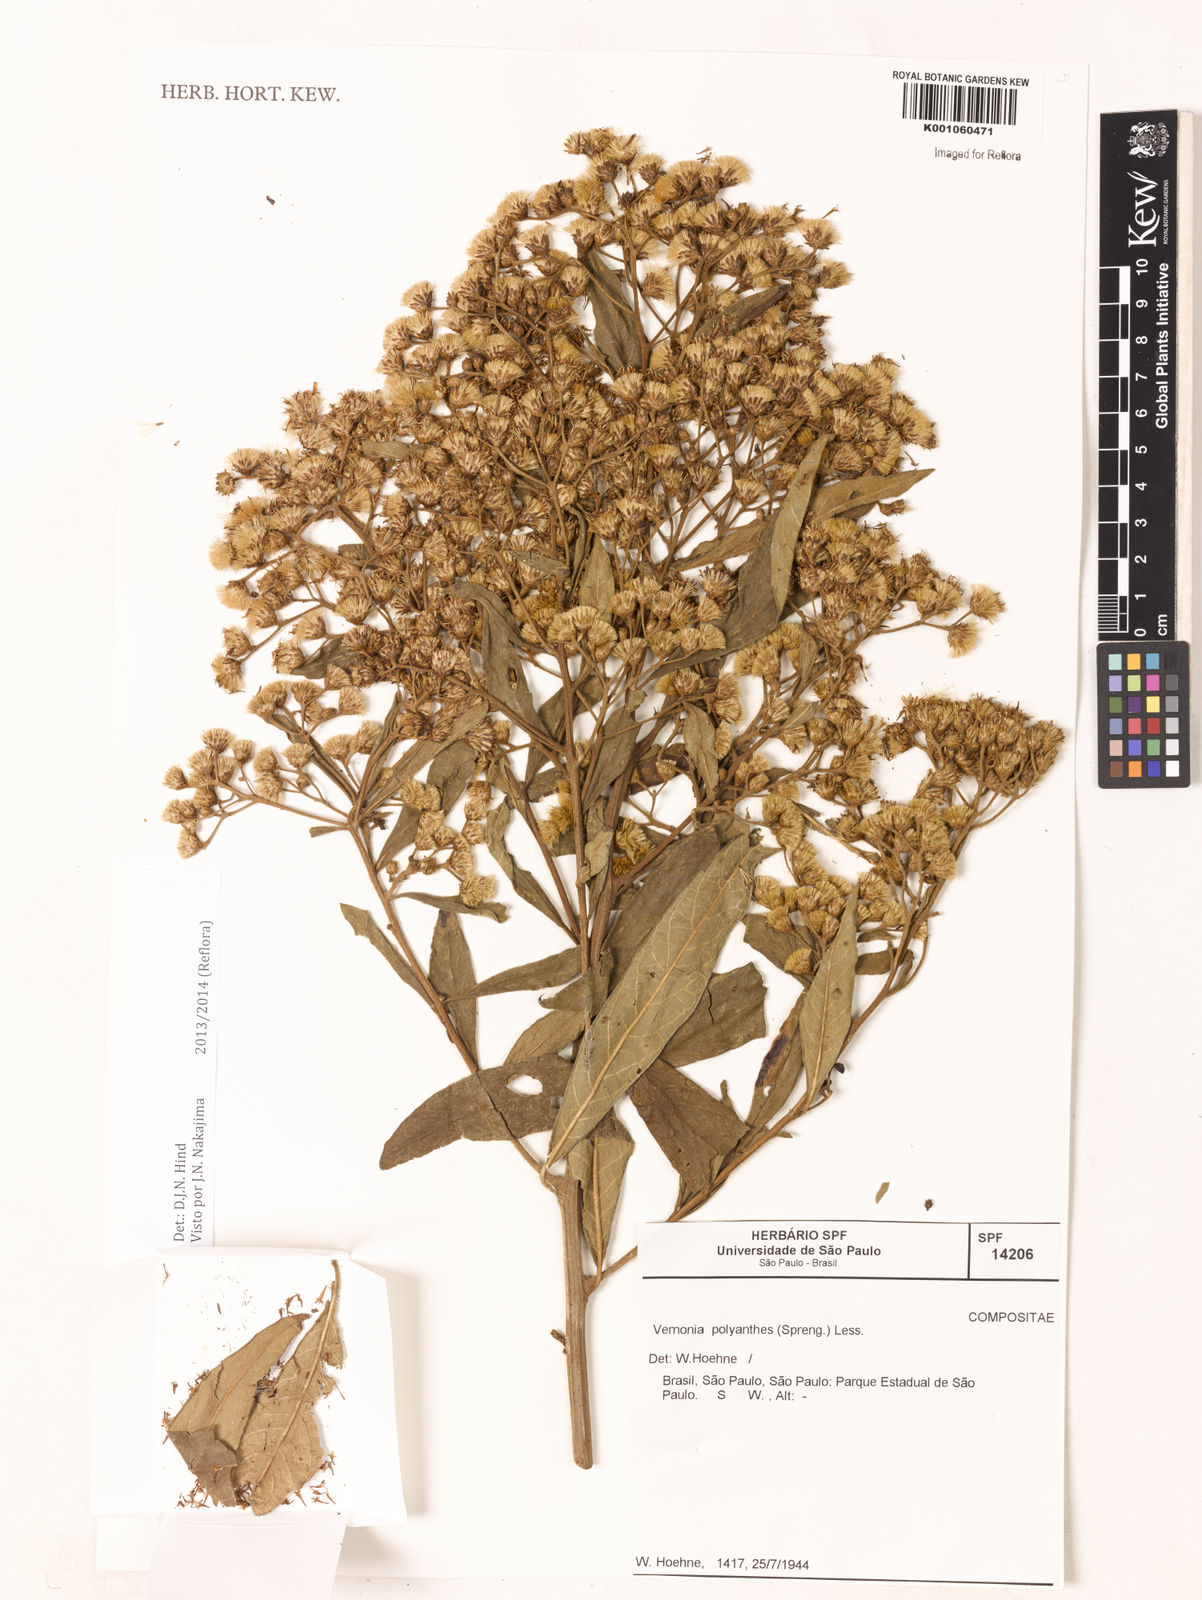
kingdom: Plantae
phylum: Tracheophyta
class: Magnoliopsida
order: Asterales
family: Asteraceae
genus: Vernonanthura
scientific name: Vernonanthura polyanthes
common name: Tree aster
